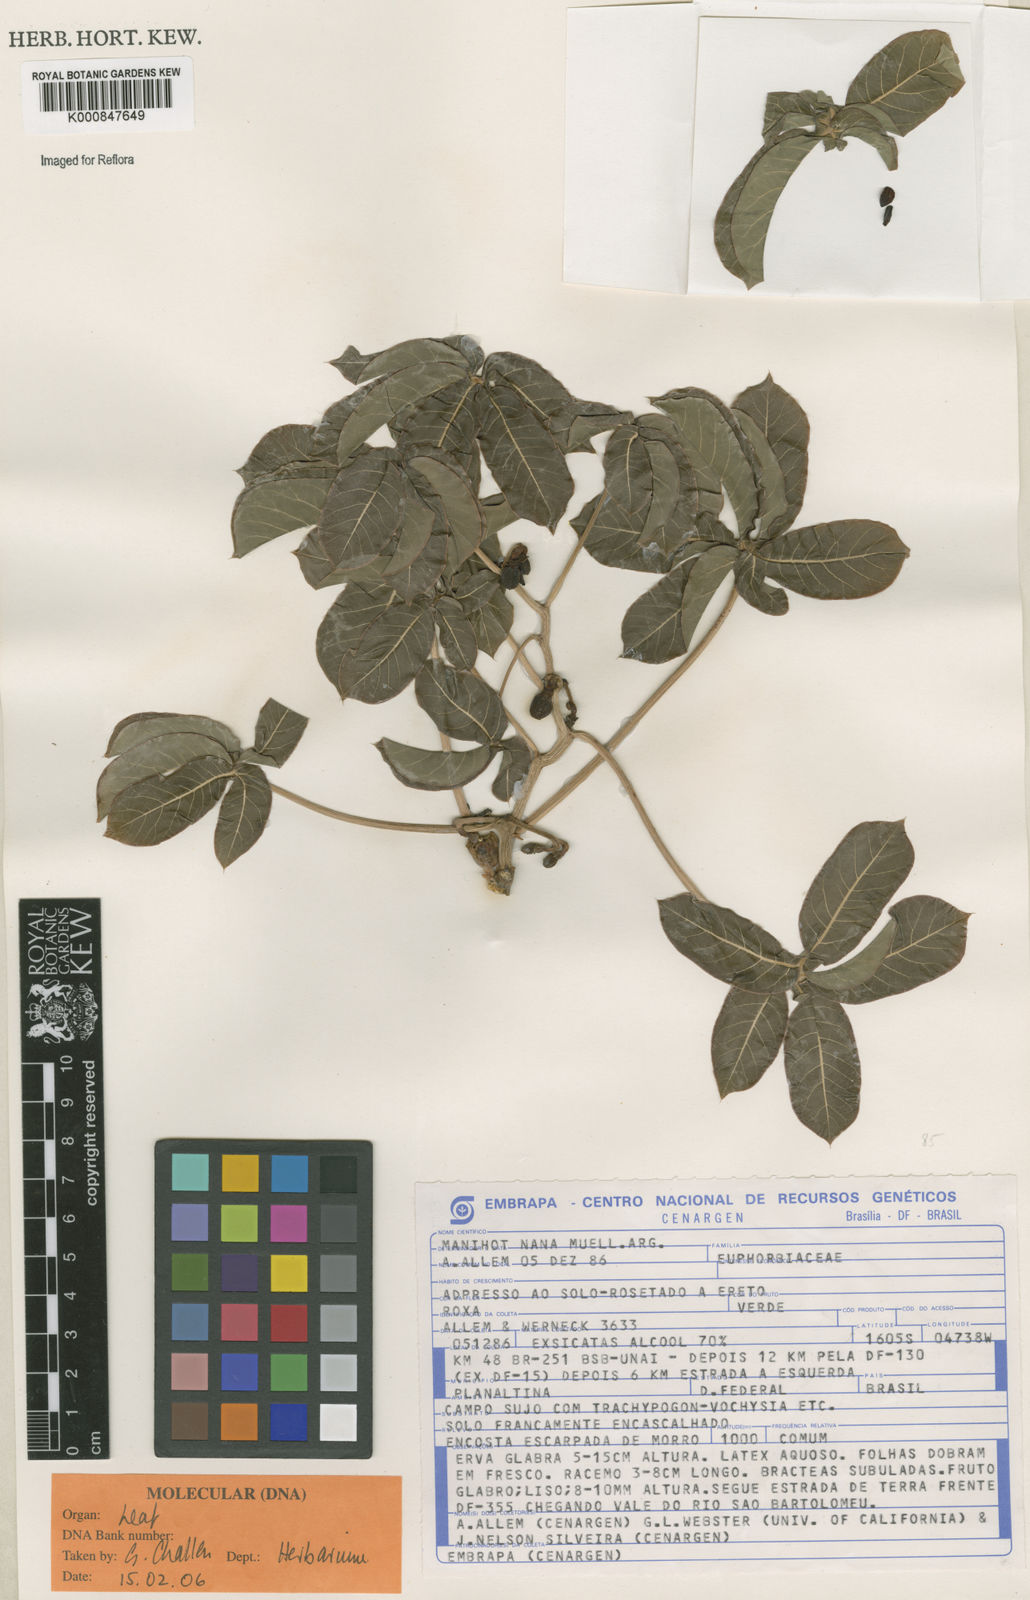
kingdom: Plantae
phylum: Tracheophyta
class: Magnoliopsida
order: Malpighiales
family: Euphorbiaceae
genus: Manihot
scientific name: Manihot
